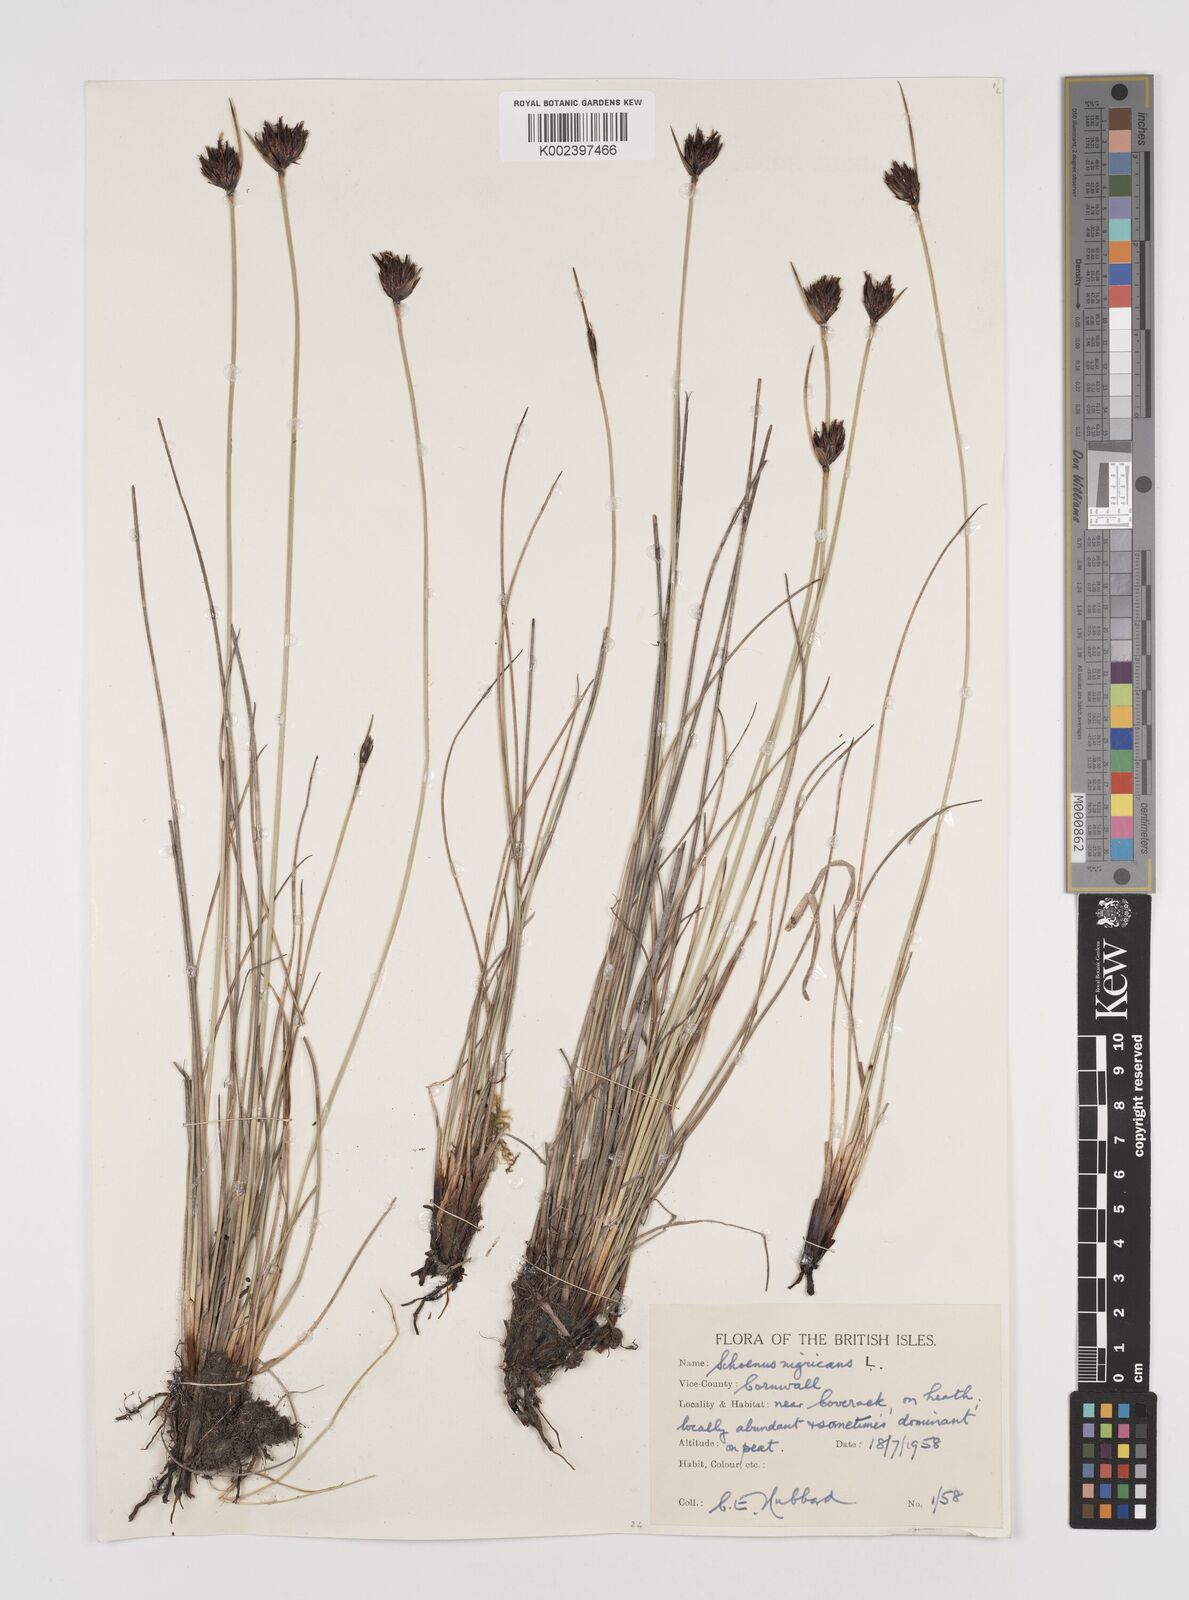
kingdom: Plantae
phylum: Tracheophyta
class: Liliopsida
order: Poales
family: Cyperaceae
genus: Schoenus
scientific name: Schoenus nigricans
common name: Black bog-rush
